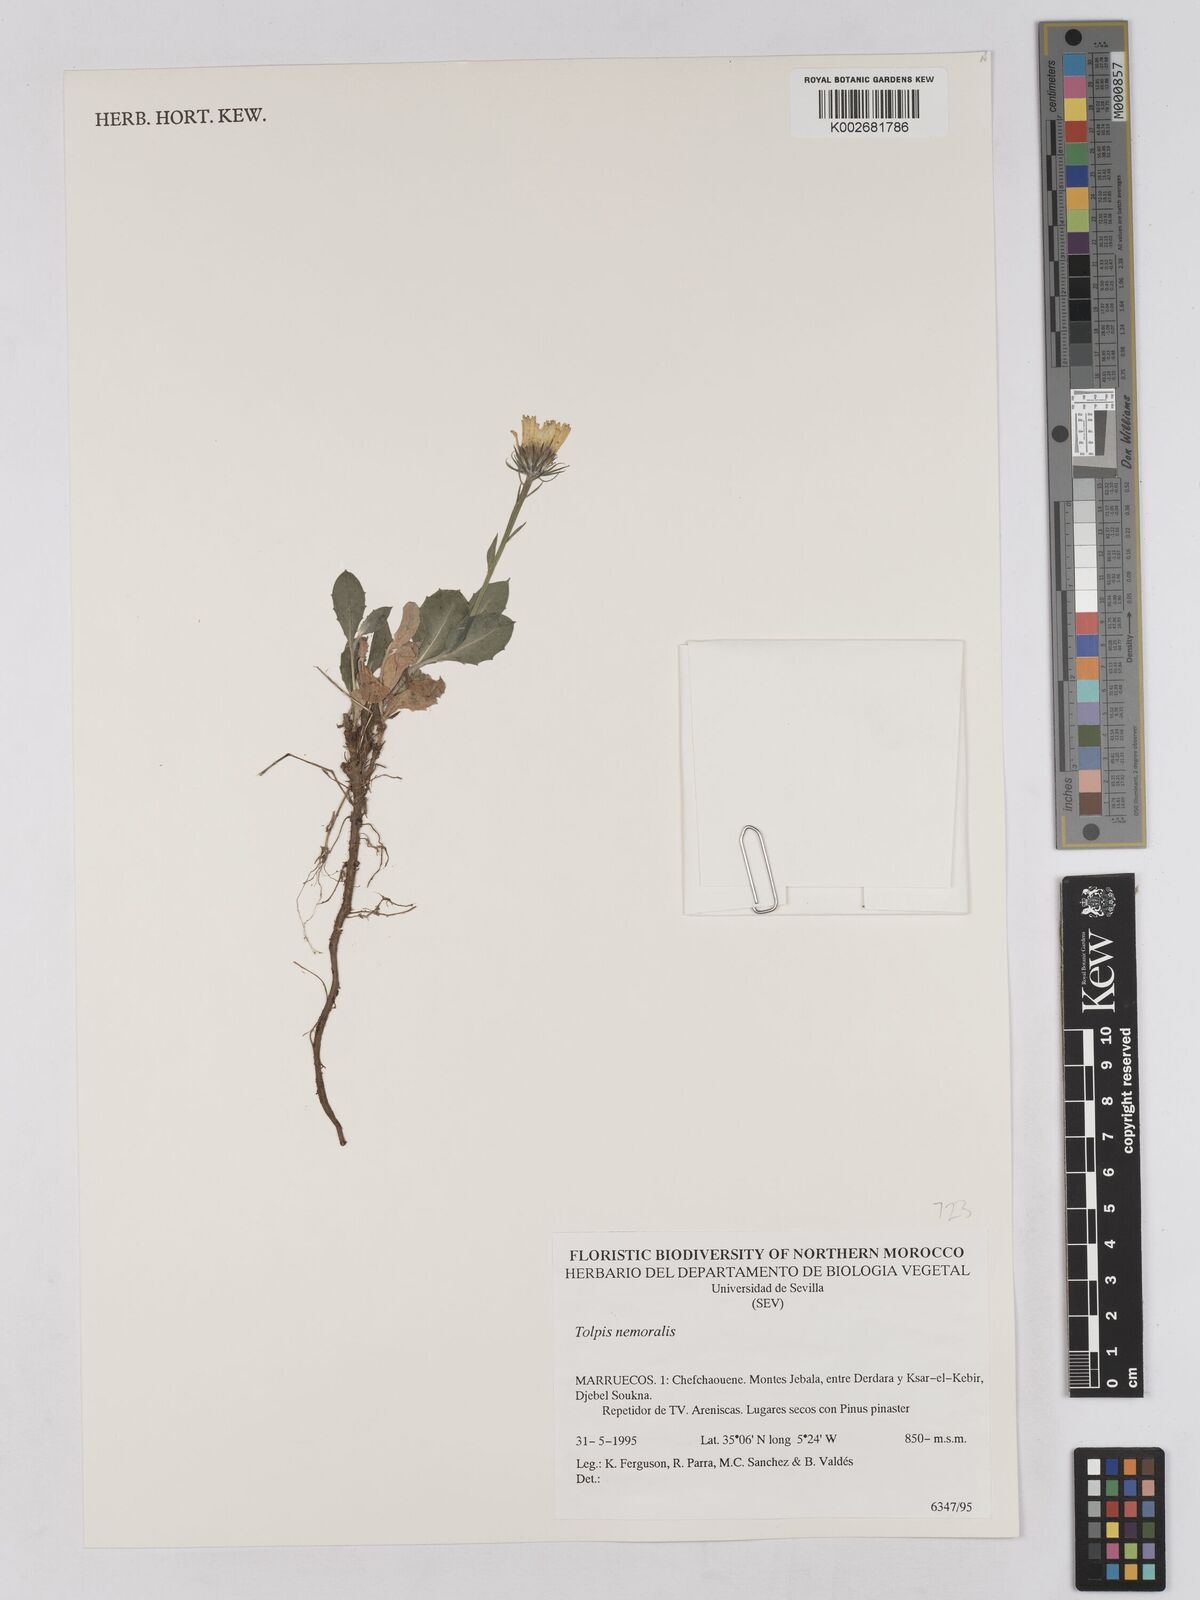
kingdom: Plantae
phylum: Tracheophyta
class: Magnoliopsida
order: Asterales
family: Asteraceae
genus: Tolpis
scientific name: Tolpis nemoralis
